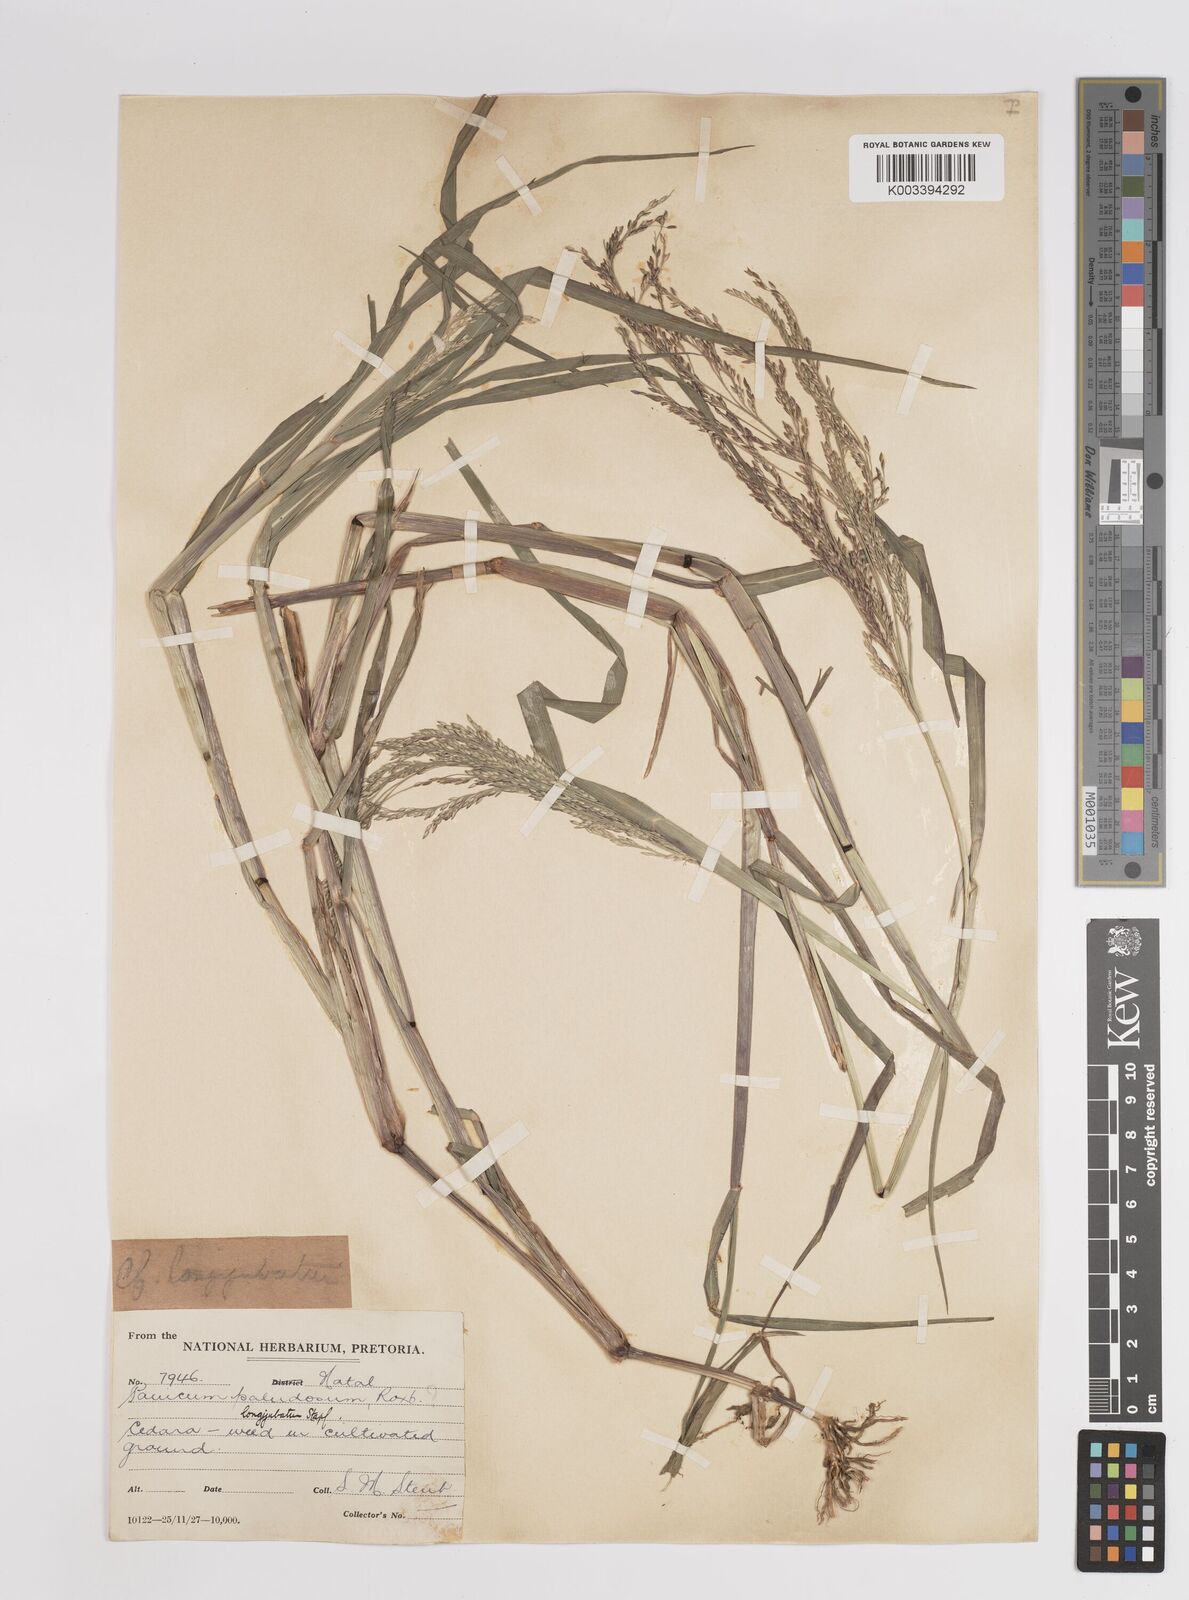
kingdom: Plantae
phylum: Tracheophyta
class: Liliopsida
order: Poales
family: Poaceae
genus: Panicum
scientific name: Panicum subalbidum
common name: Elbow buffalo grass
